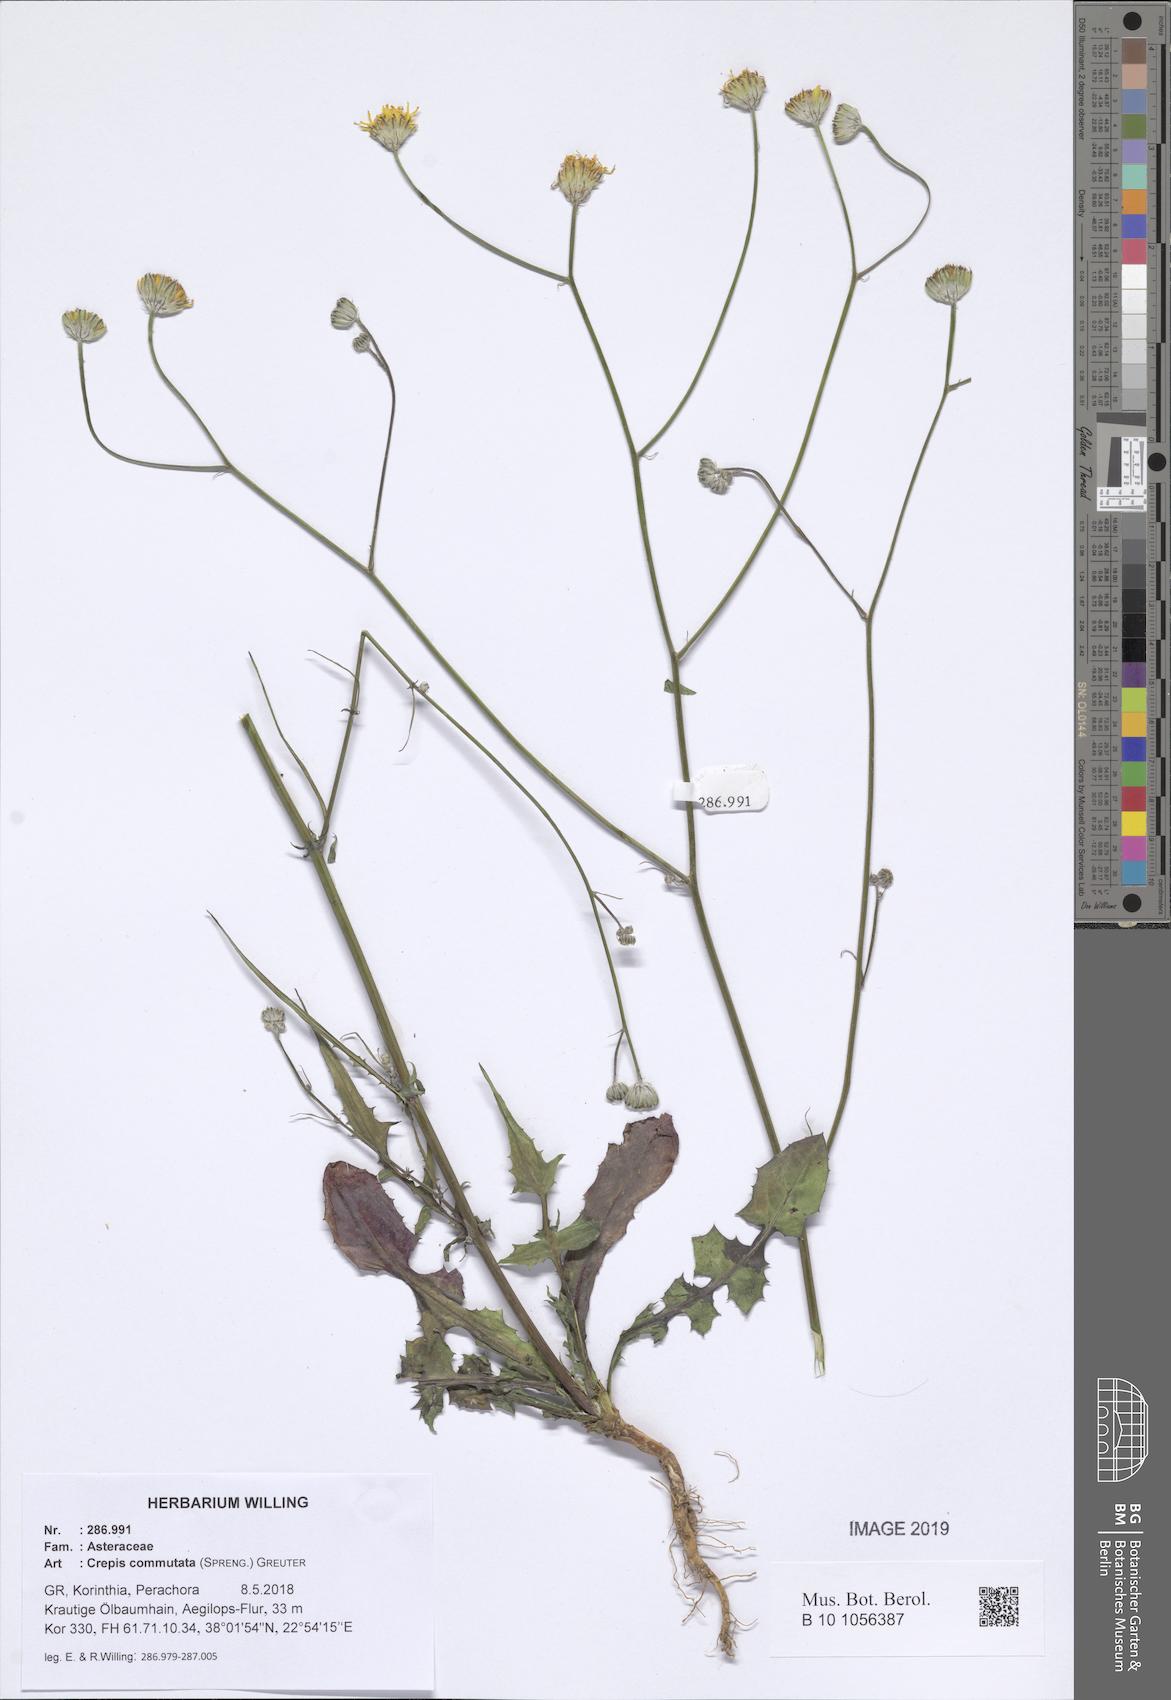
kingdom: Plantae
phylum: Tracheophyta
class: Magnoliopsida
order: Asterales
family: Asteraceae
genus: Crepis
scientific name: Crepis commutata
